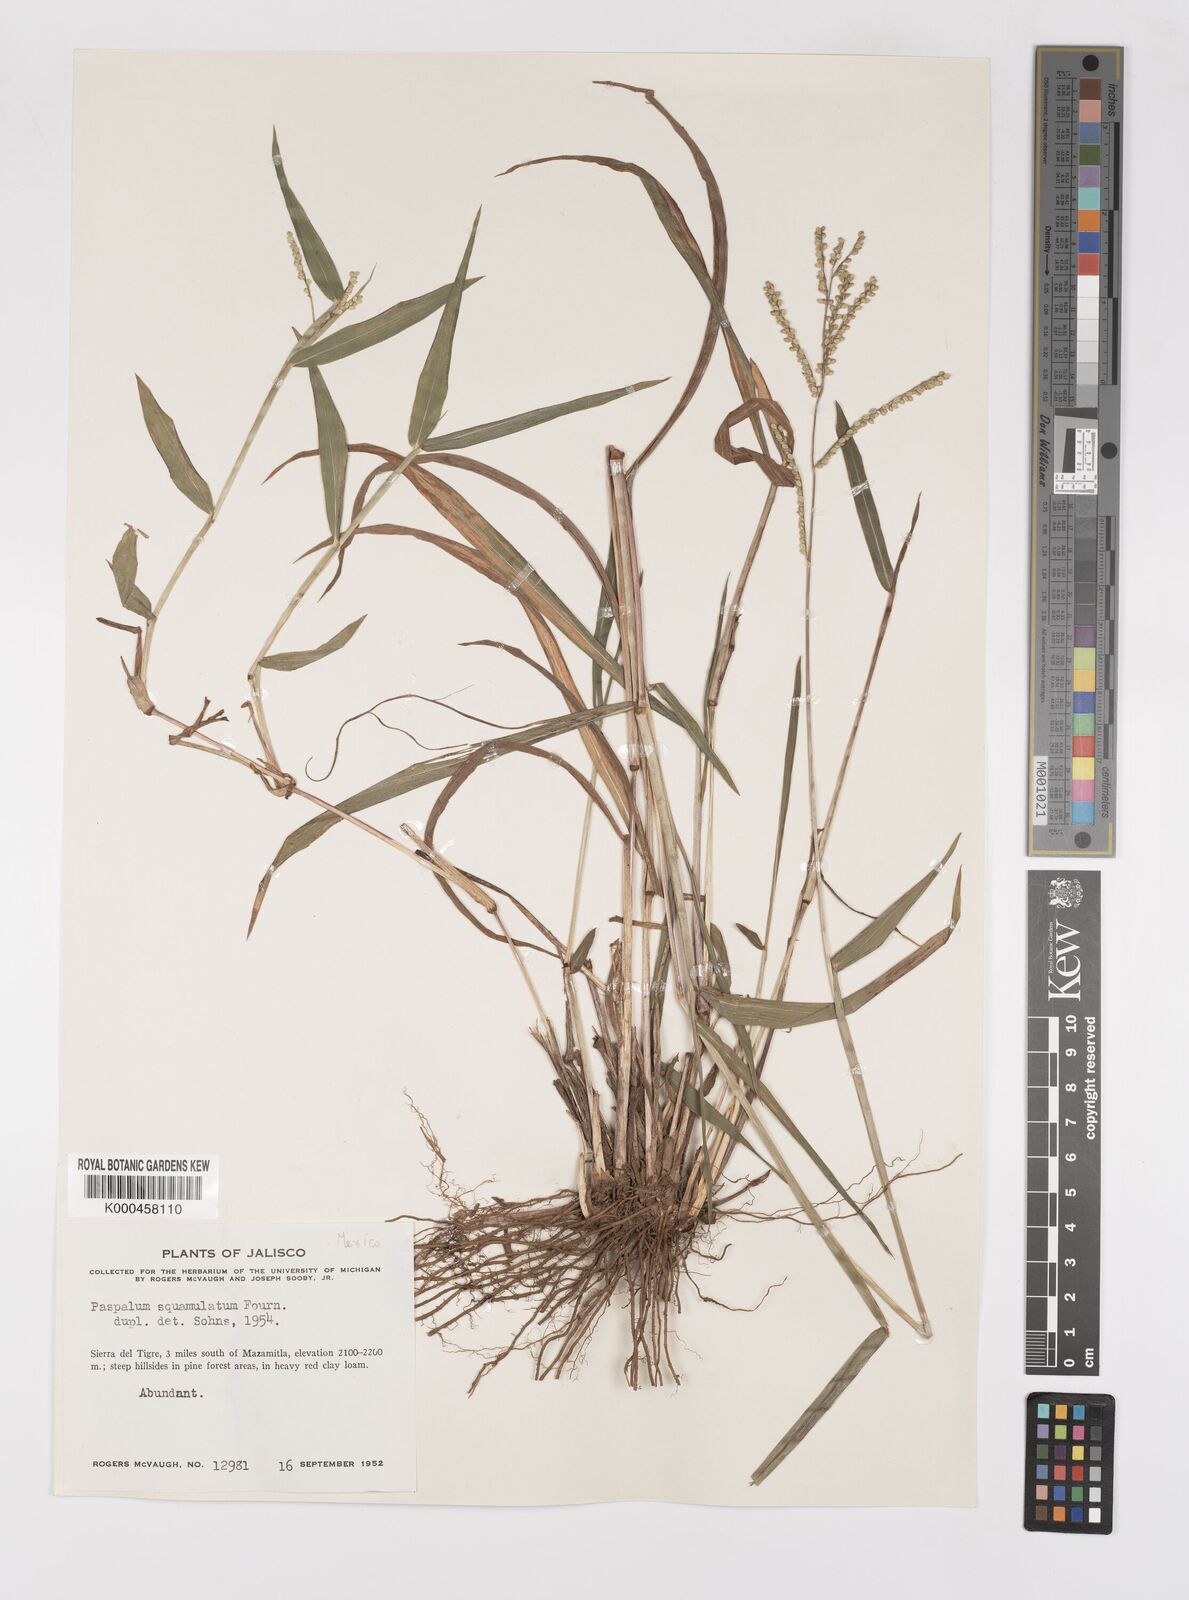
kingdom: Plantae
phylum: Tracheophyta
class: Liliopsida
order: Poales
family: Poaceae
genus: Paspalum
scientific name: Paspalum
